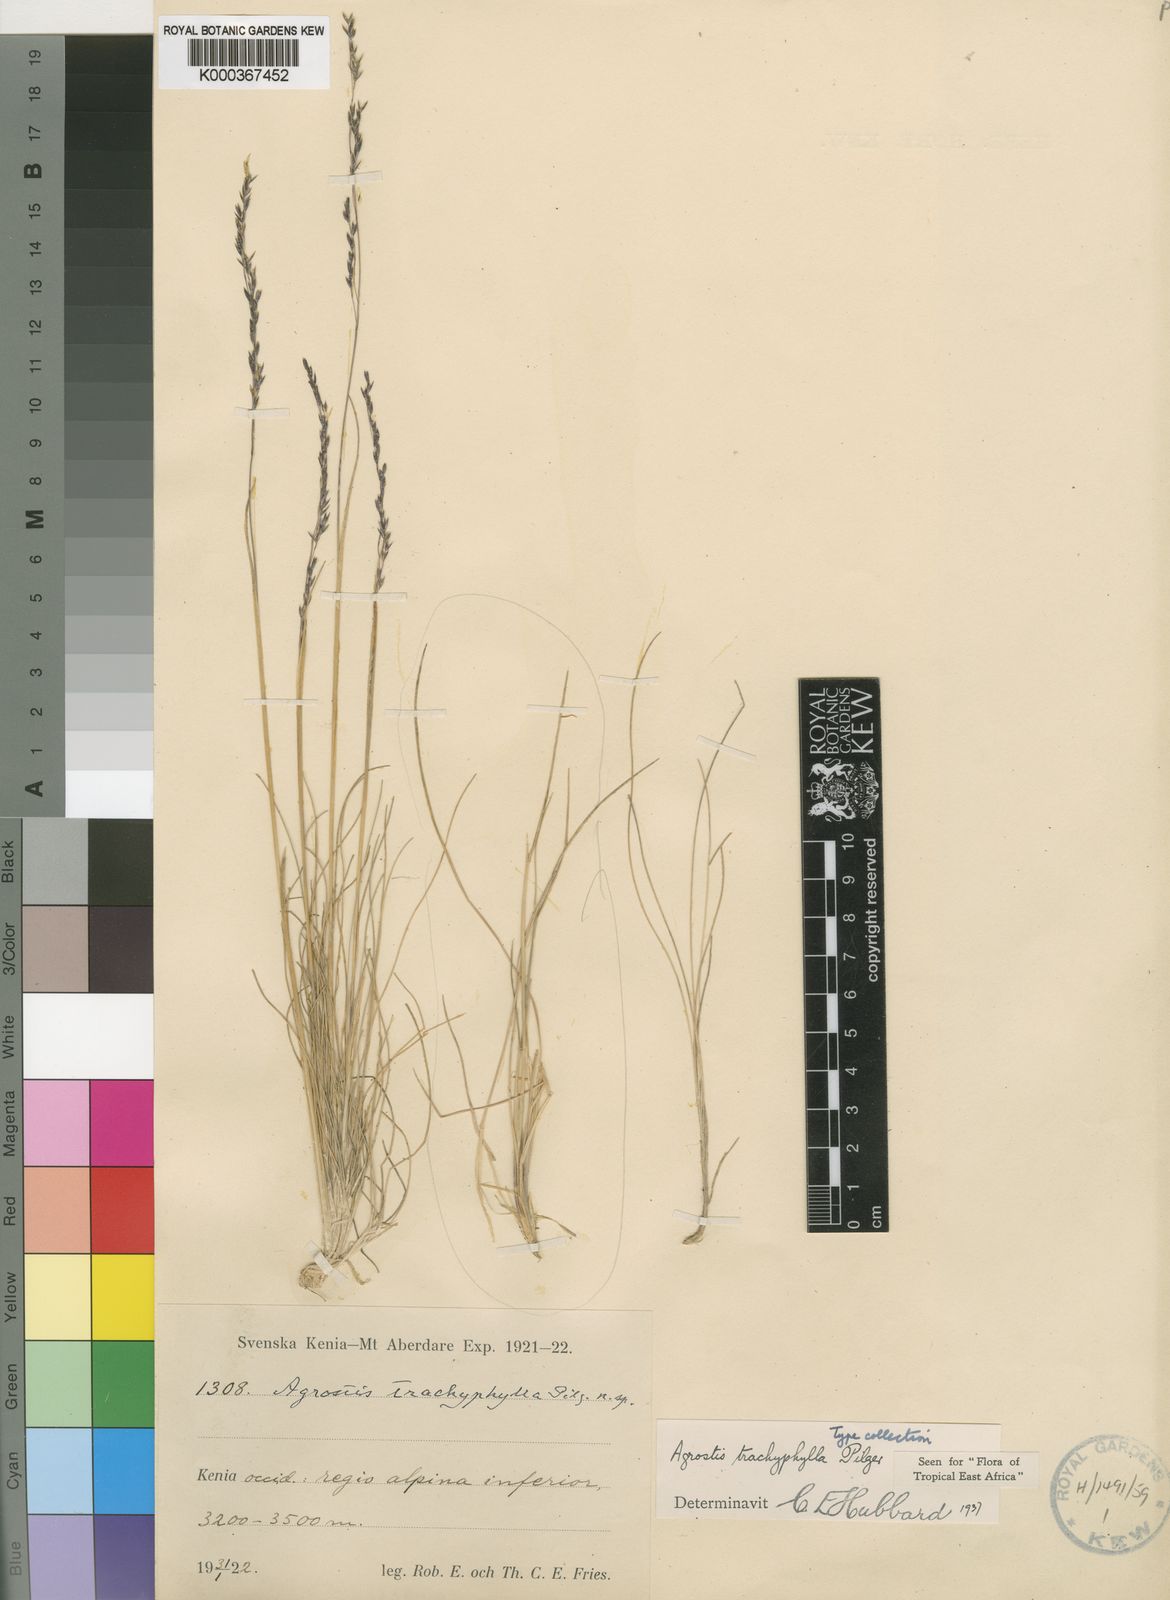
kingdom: Plantae
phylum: Tracheophyta
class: Liliopsida
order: Poales
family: Poaceae
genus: Agrostis
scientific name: Agrostis trachyphylla
